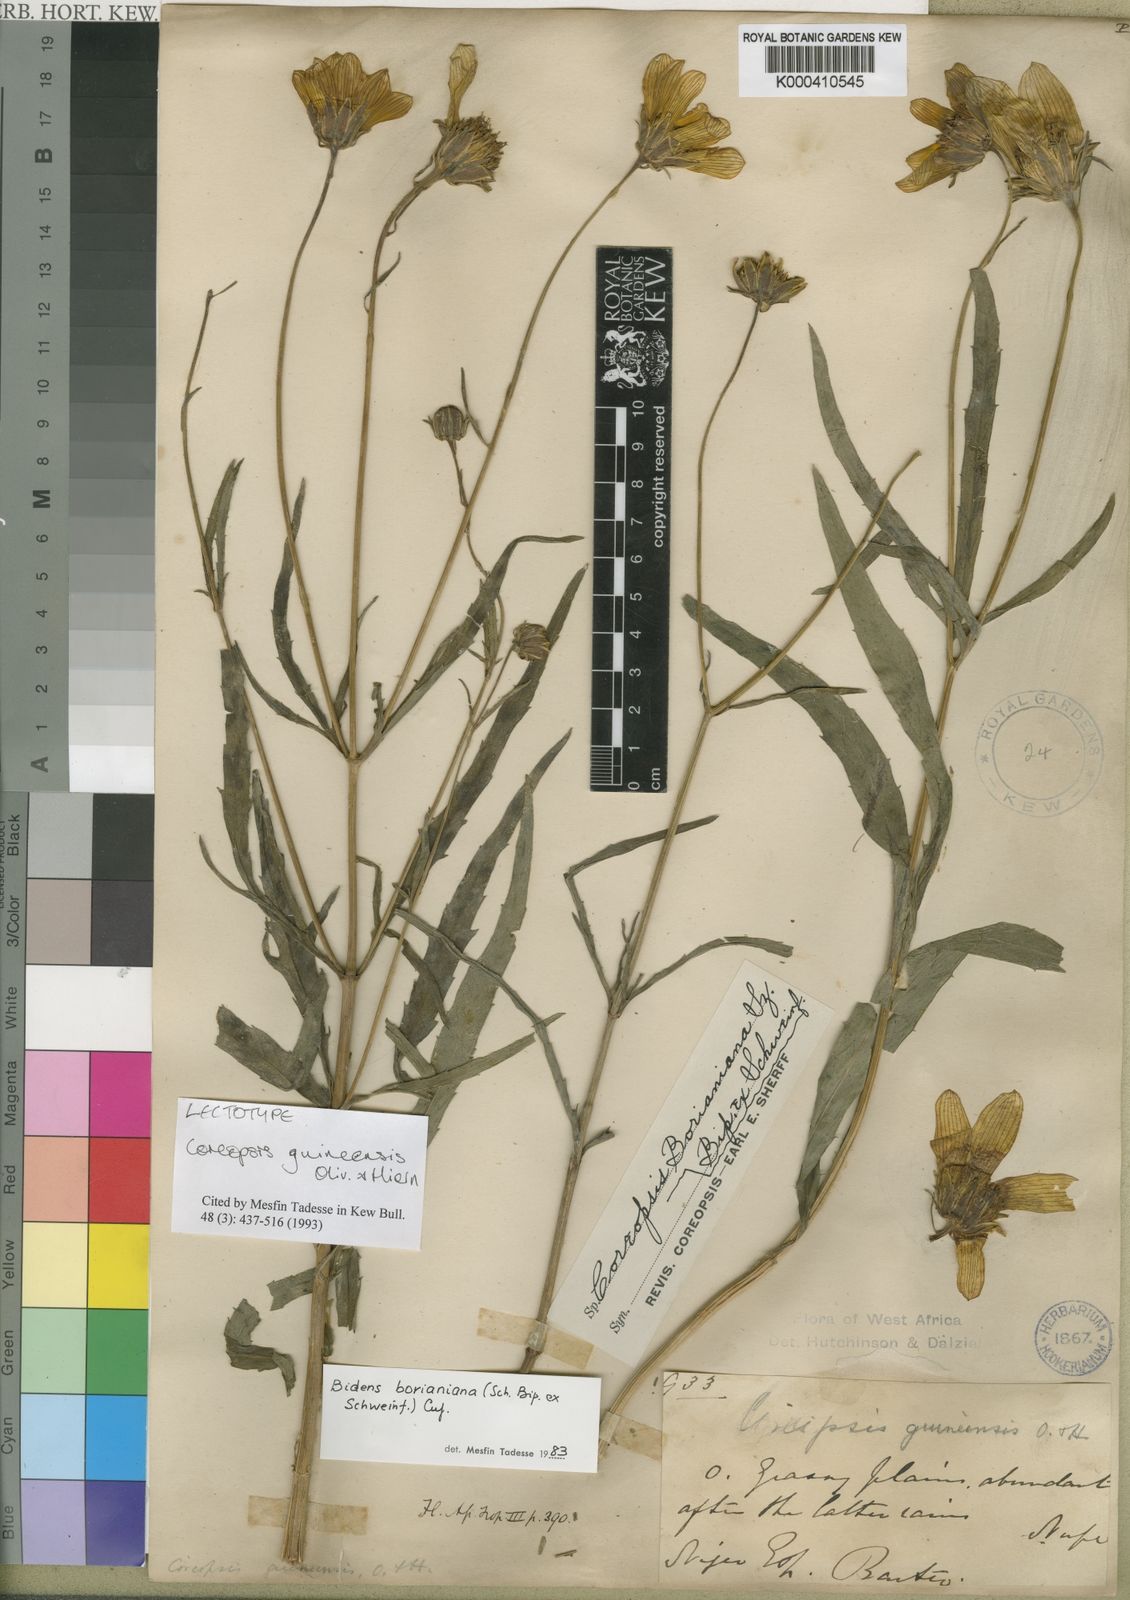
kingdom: Plantae
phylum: Tracheophyta
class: Magnoliopsida
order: Asterales
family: Asteraceae
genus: Bidens
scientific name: Bidens borianiana
